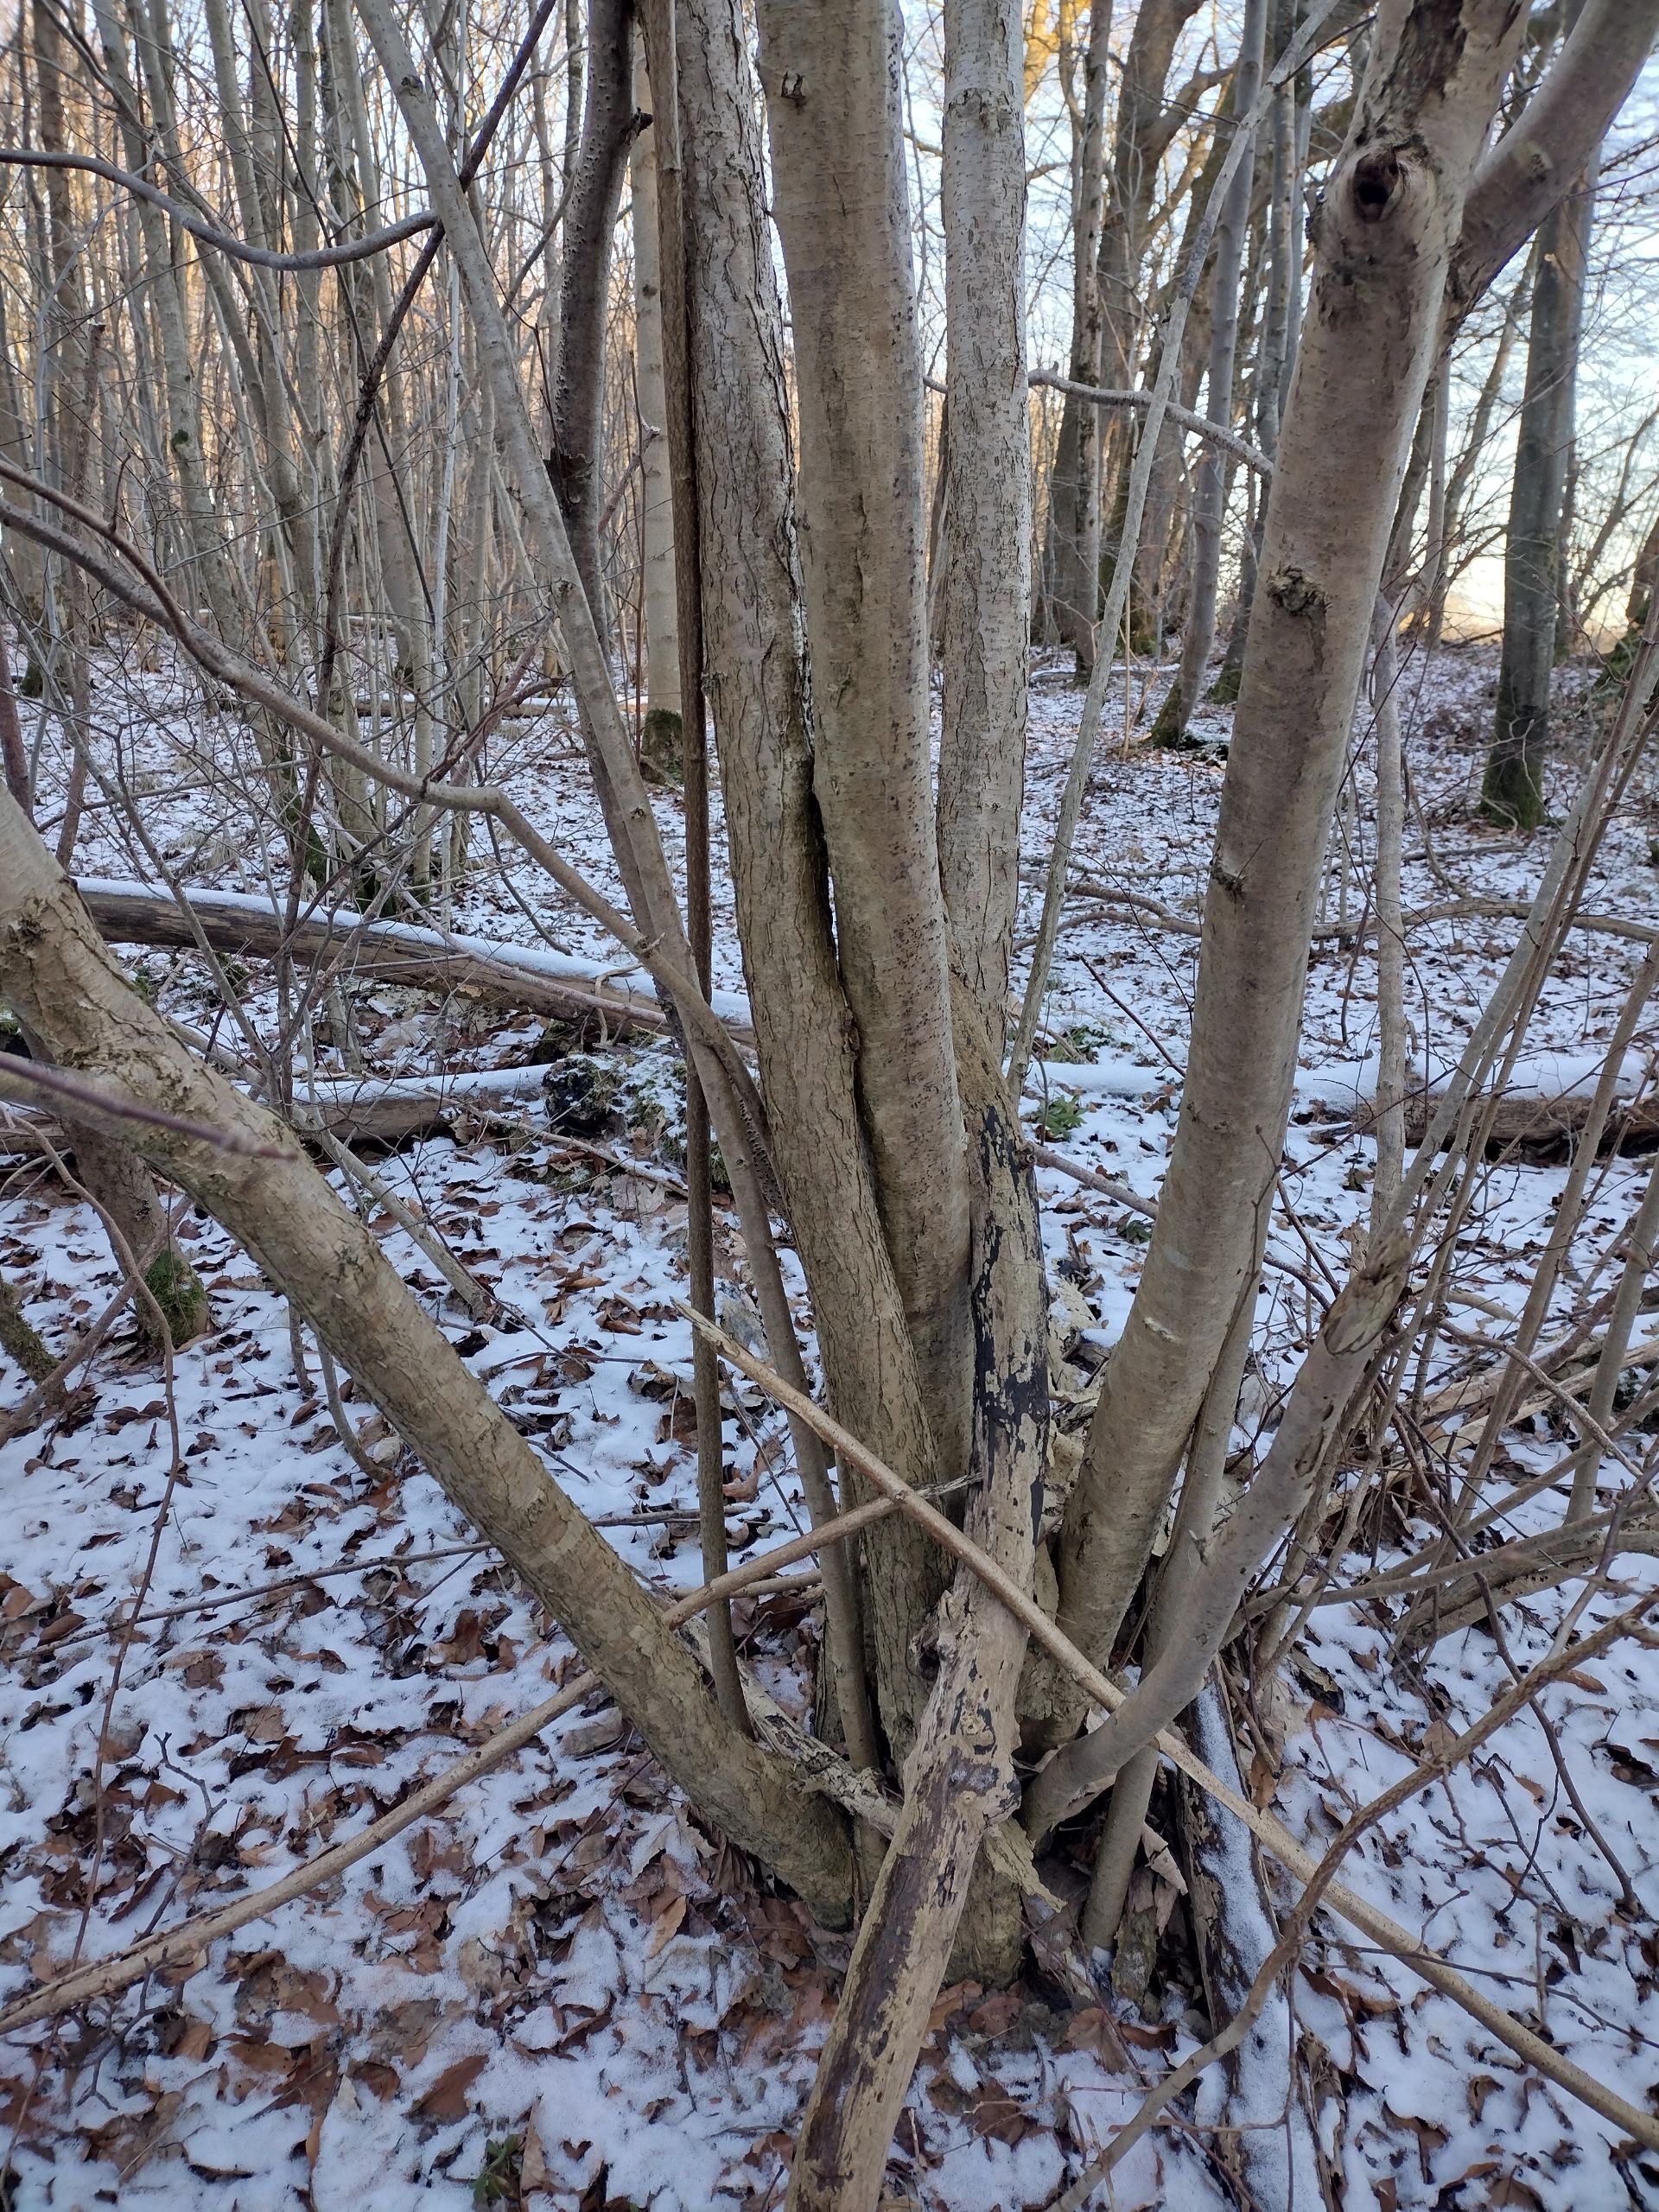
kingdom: Plantae
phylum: Tracheophyta
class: Magnoliopsida
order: Fagales
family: Betulaceae
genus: Corylus
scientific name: Corylus avellana
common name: Hassel
